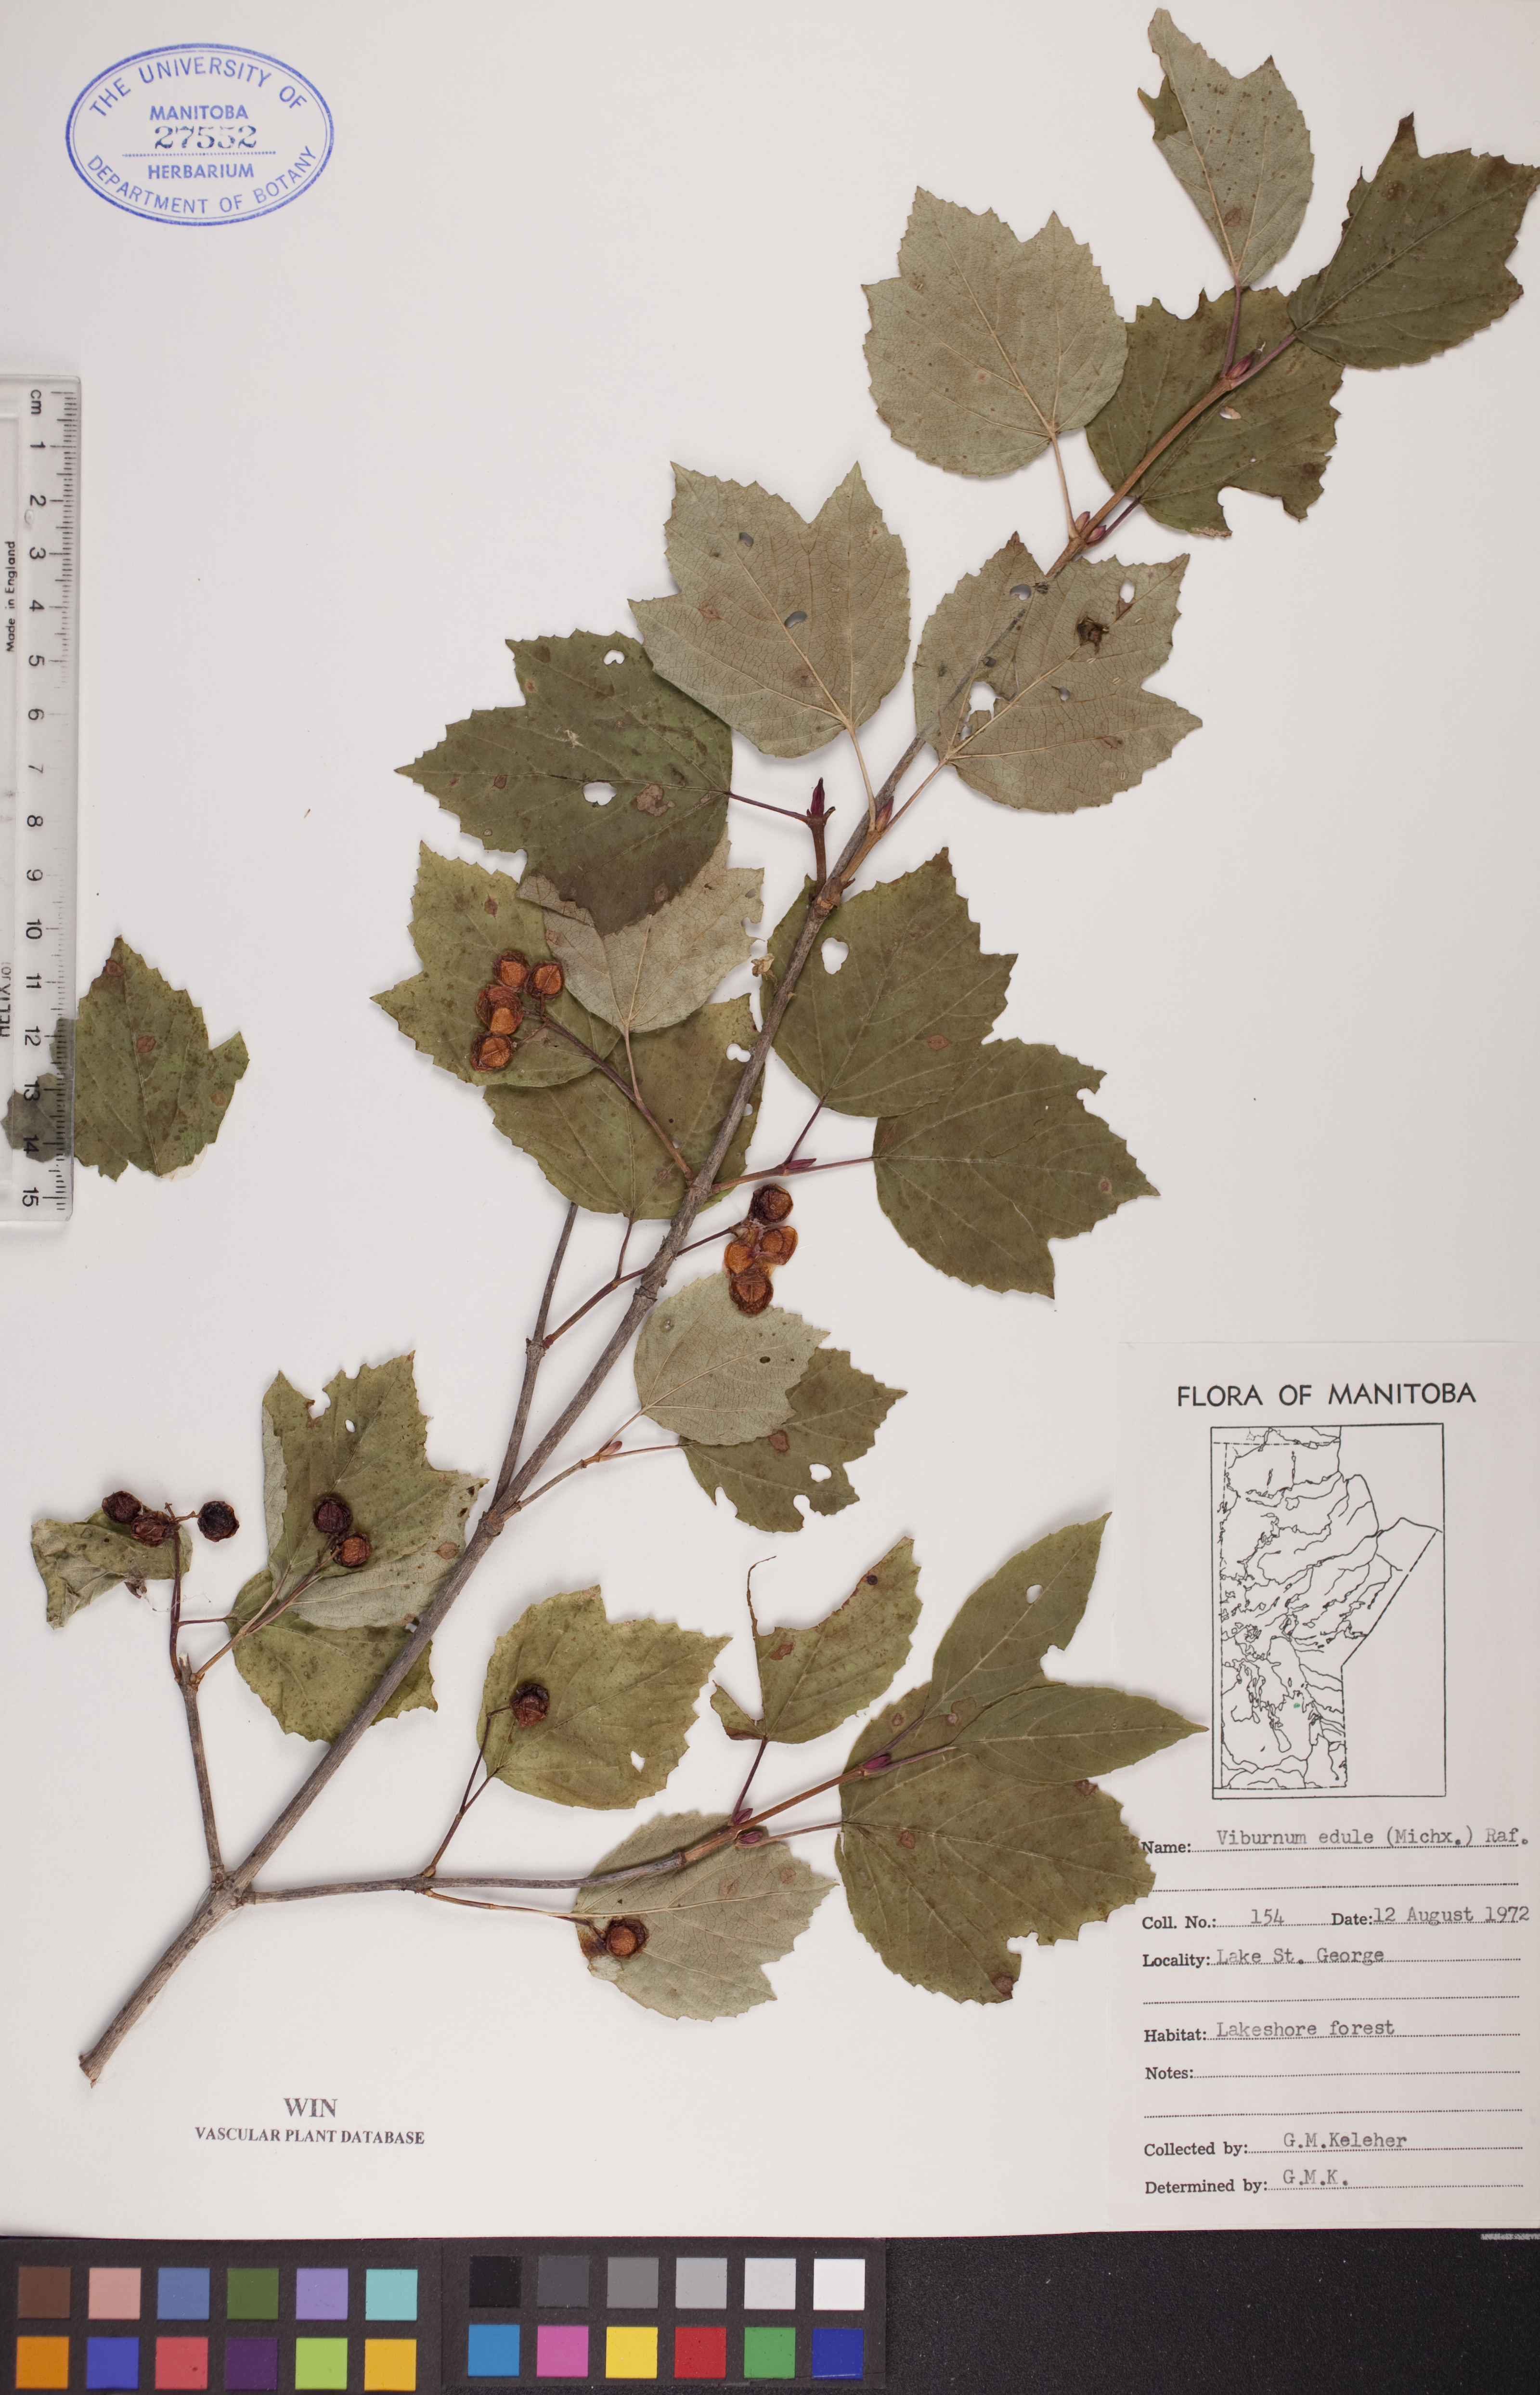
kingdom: Plantae
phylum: Tracheophyta
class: Magnoliopsida
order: Dipsacales
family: Viburnaceae
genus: Viburnum
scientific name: Viburnum edule
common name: Mooseberry
